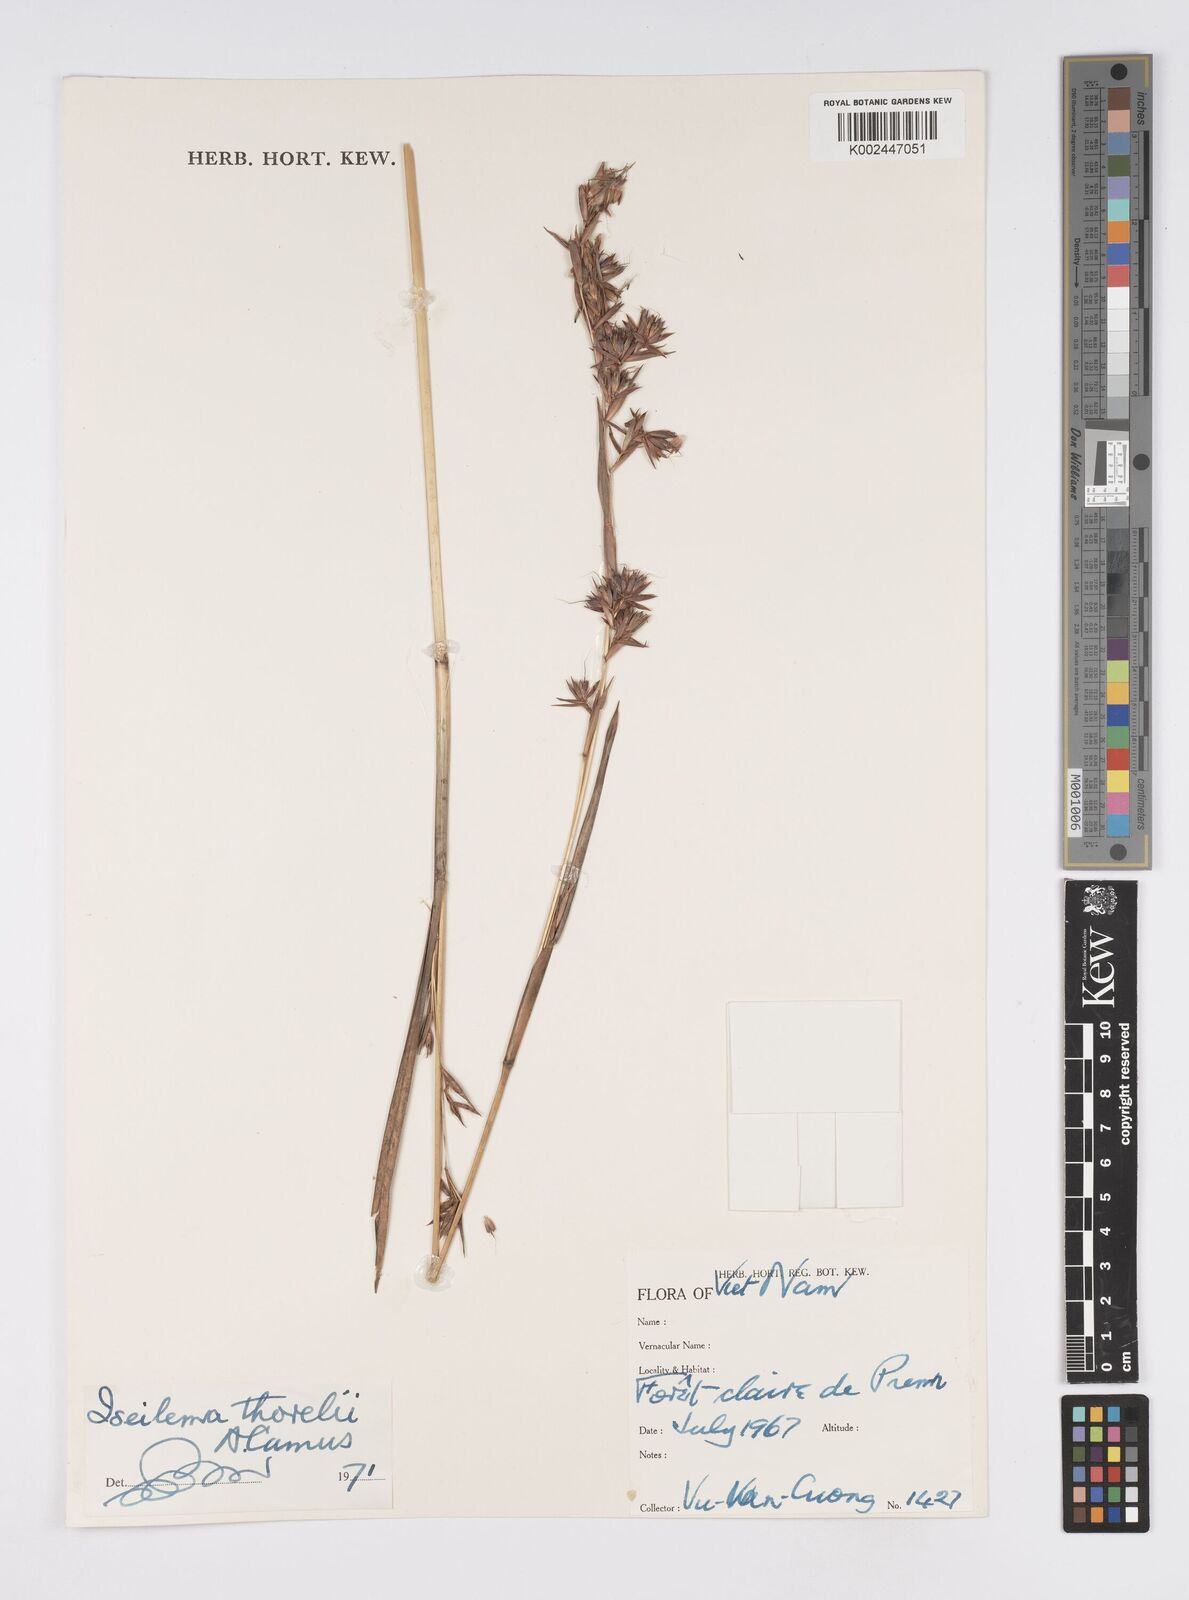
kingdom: Plantae
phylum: Tracheophyta
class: Liliopsida
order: Poales
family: Poaceae
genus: Iseilema
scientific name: Iseilema thorelii
